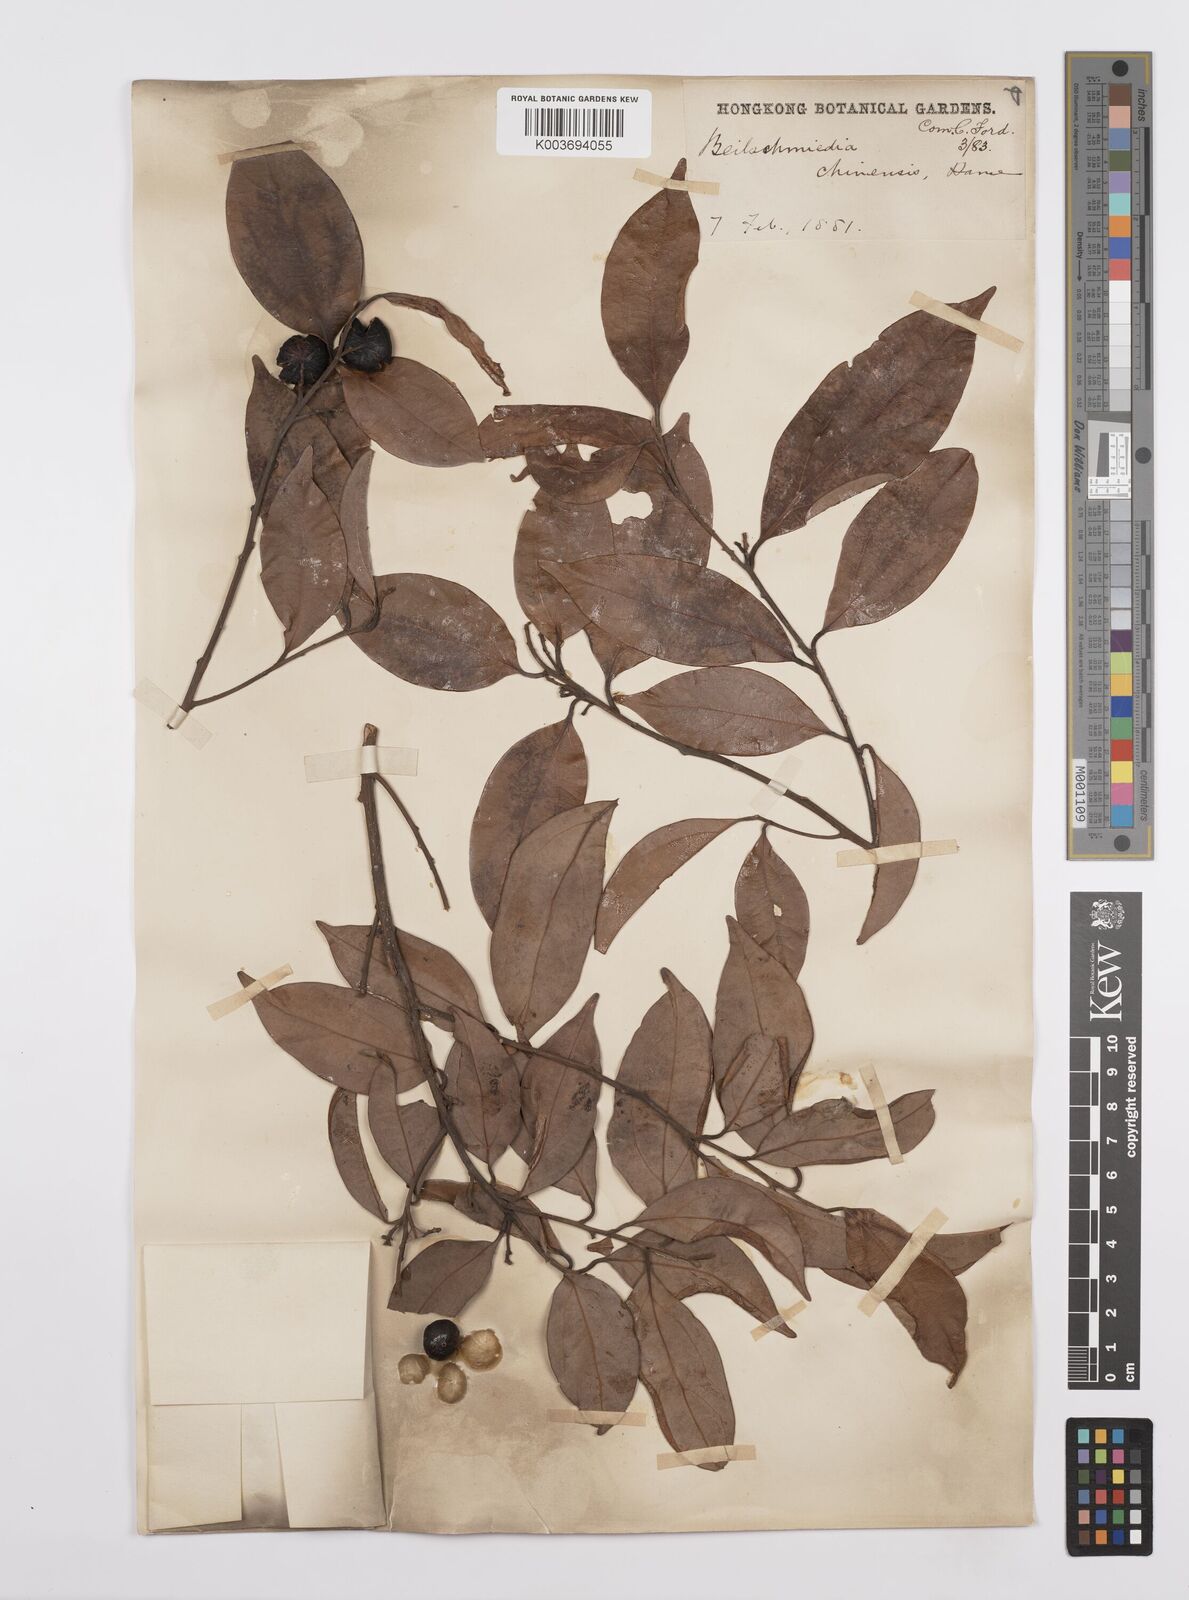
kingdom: Plantae
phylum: Tracheophyta
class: Magnoliopsida
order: Laurales
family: Lauraceae
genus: Cryptocarya
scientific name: Cryptocarya chinensis
